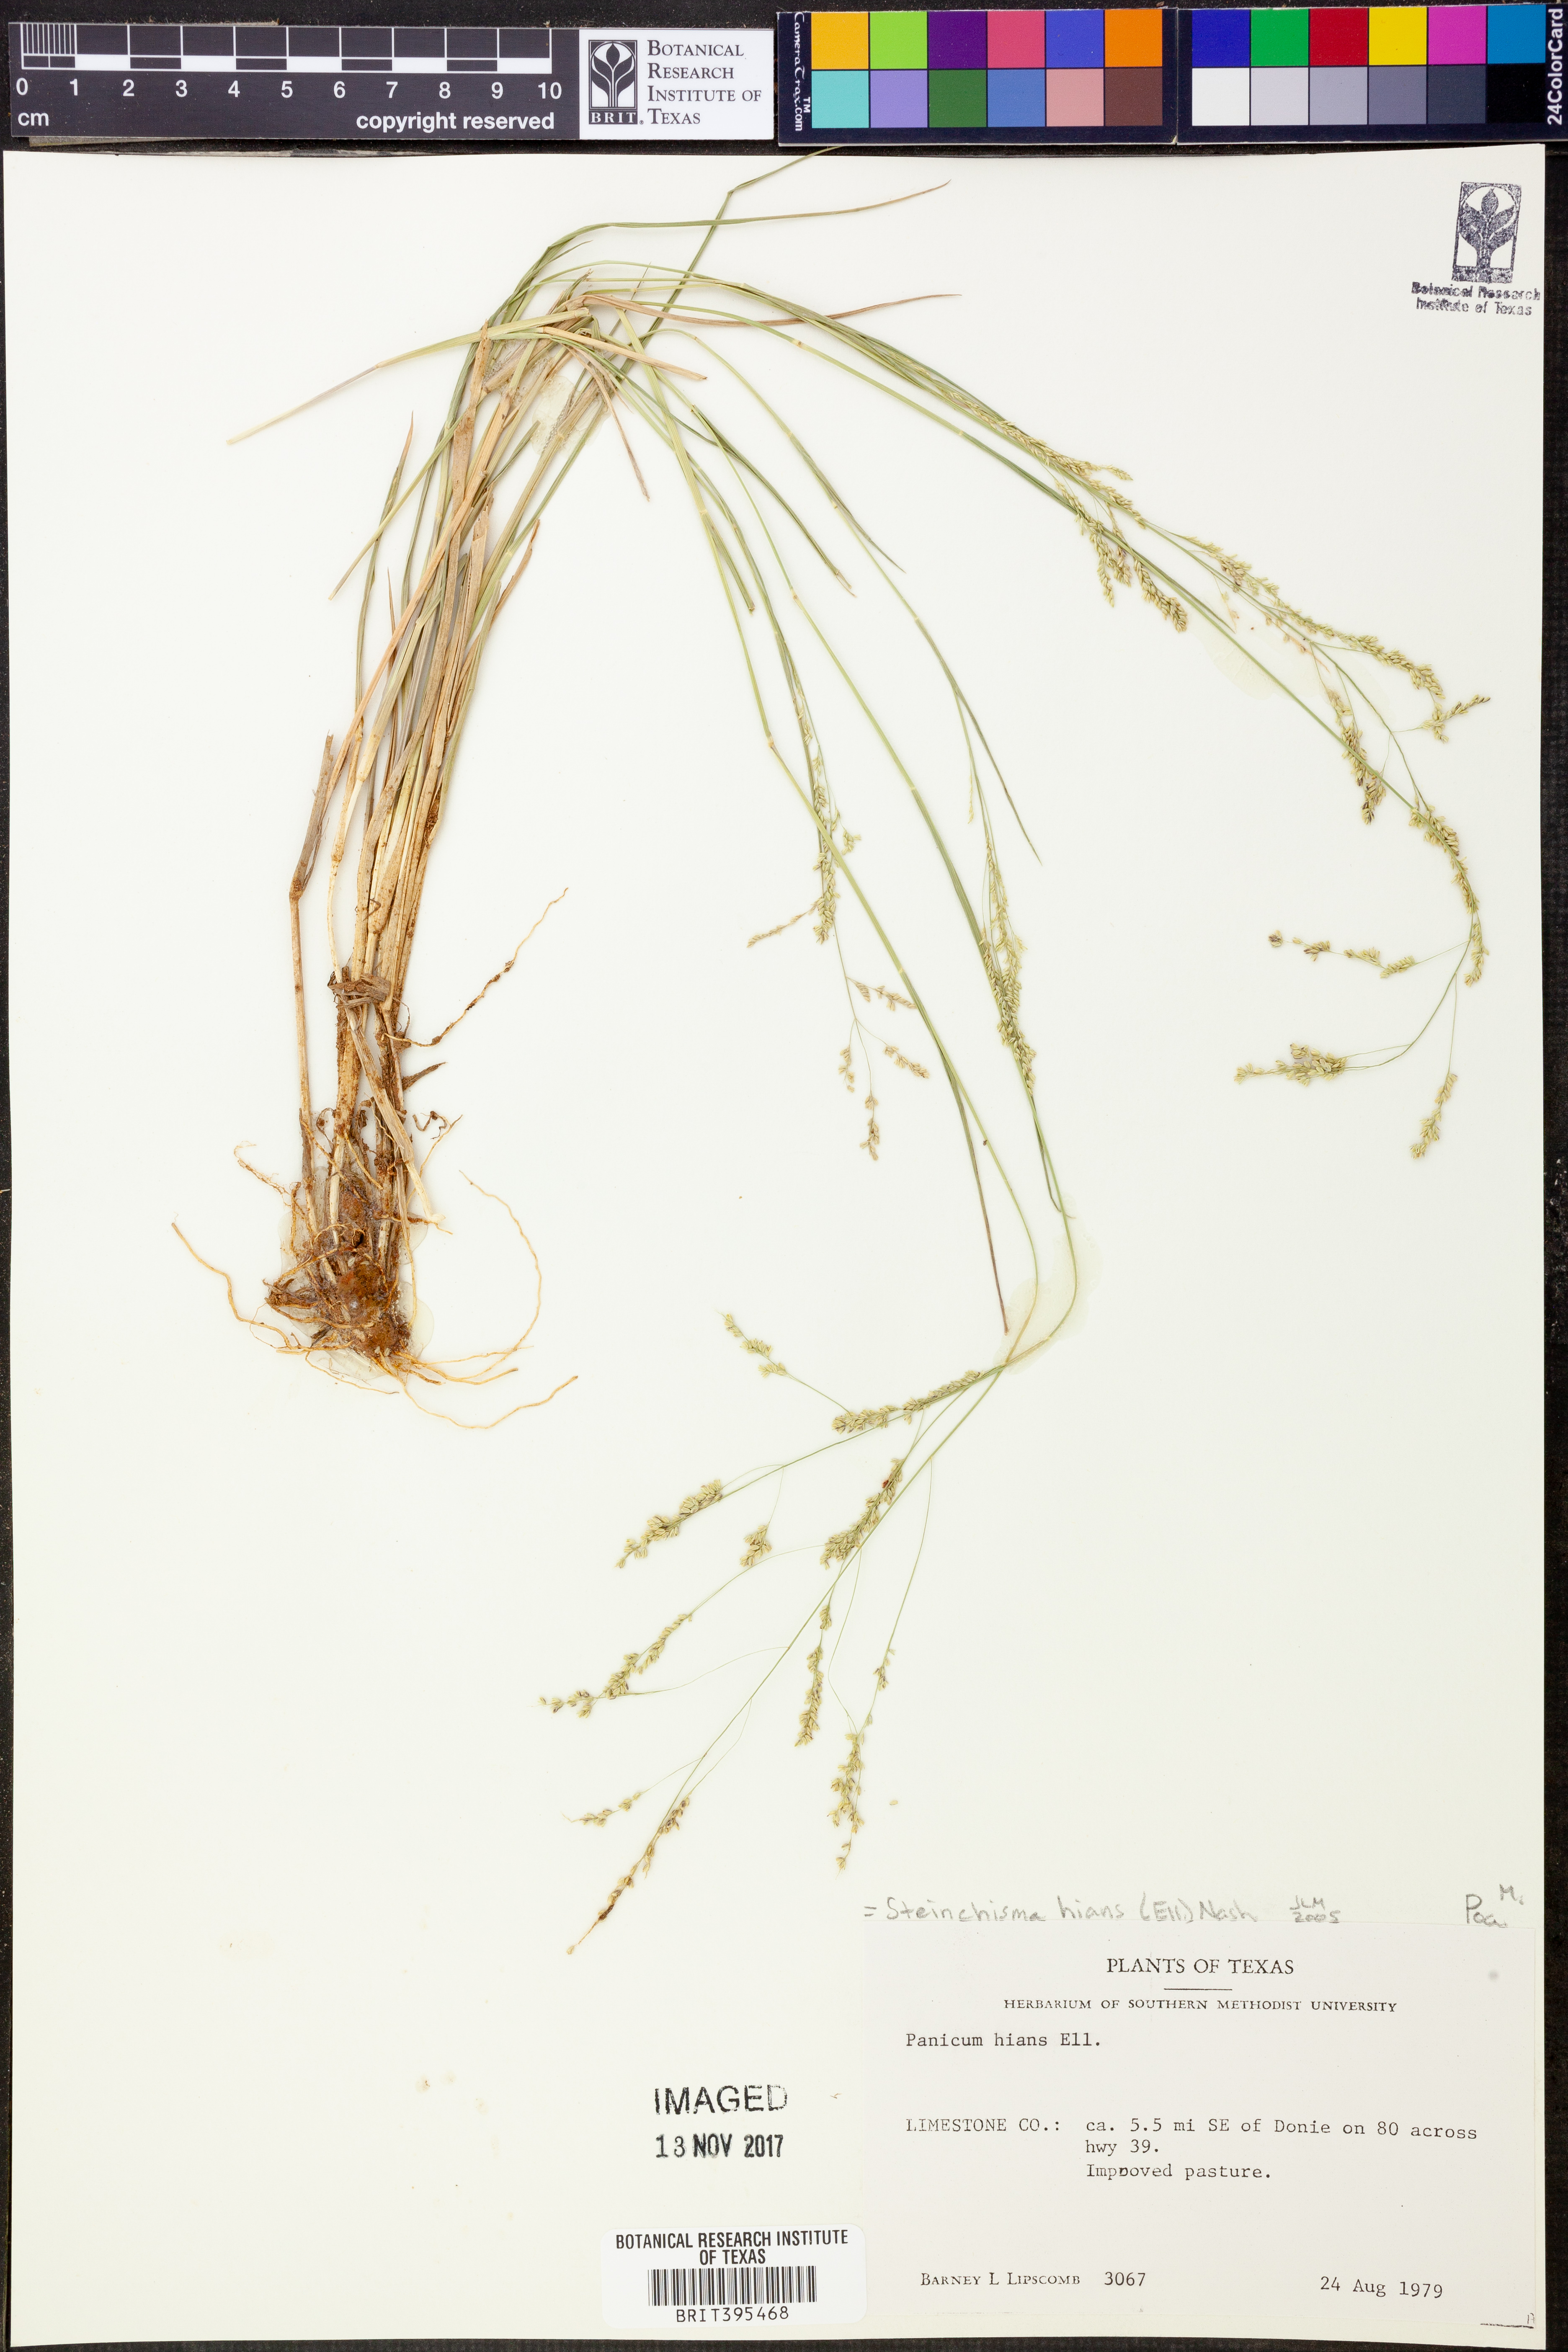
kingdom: Plantae
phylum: Tracheophyta
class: Liliopsida
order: Poales
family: Poaceae
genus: Steinchisma
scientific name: Steinchisma hians
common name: Gaping panic grass
